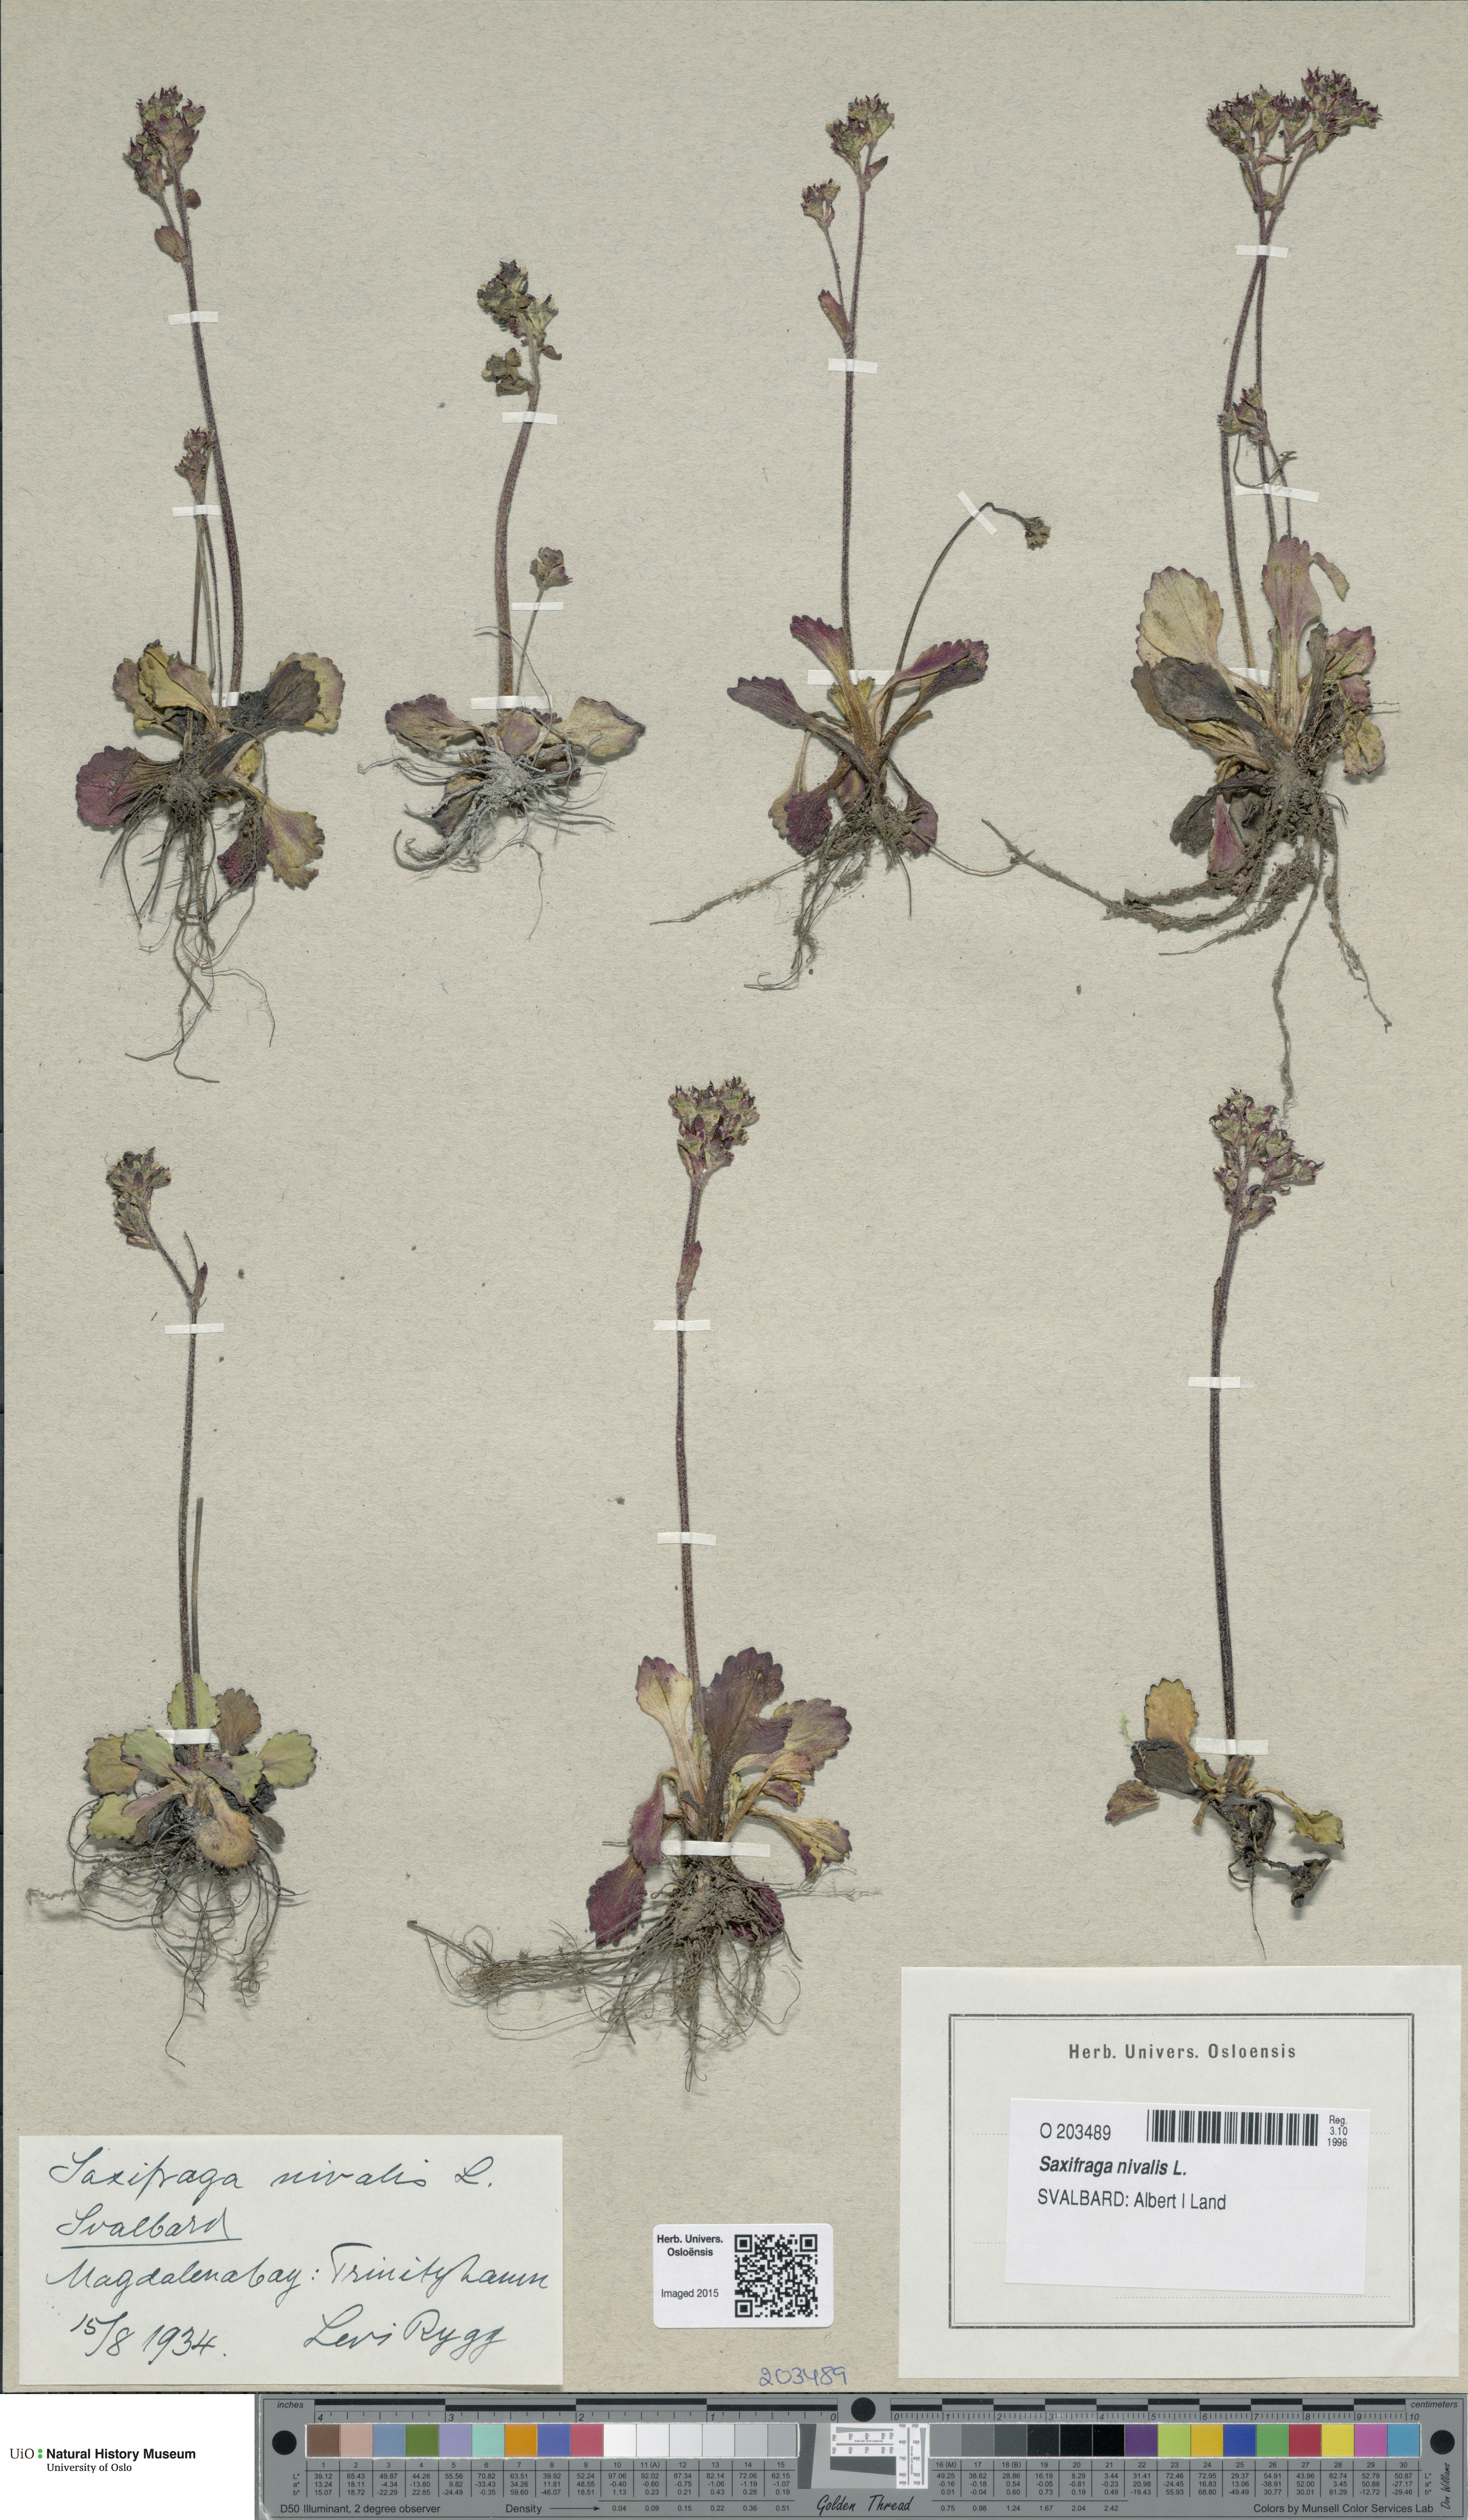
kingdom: Plantae
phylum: Tracheophyta
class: Magnoliopsida
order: Saxifragales
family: Saxifragaceae
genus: Micranthes
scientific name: Micranthes nivalis
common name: Alpine saxifrage
